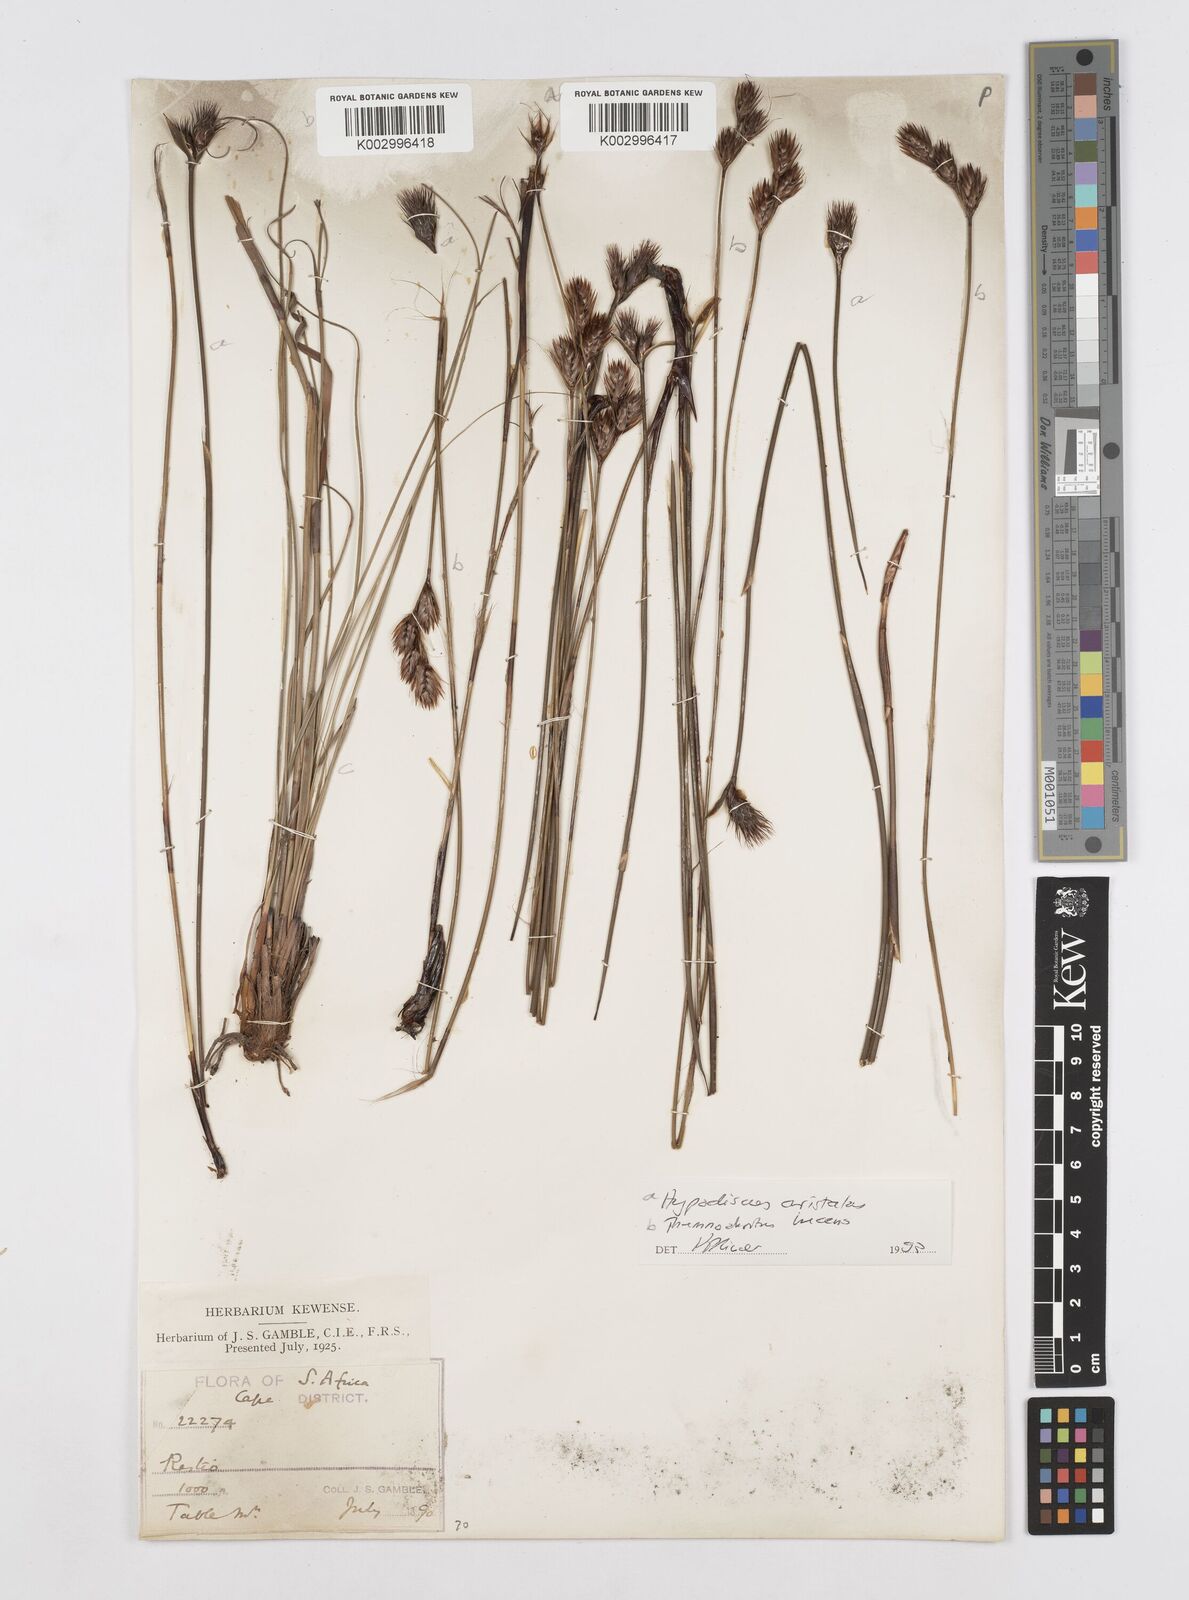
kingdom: Plantae
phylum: Tracheophyta
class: Liliopsida
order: Poales
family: Restionaceae
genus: Hypodiscus
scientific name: Hypodiscus aristatus
